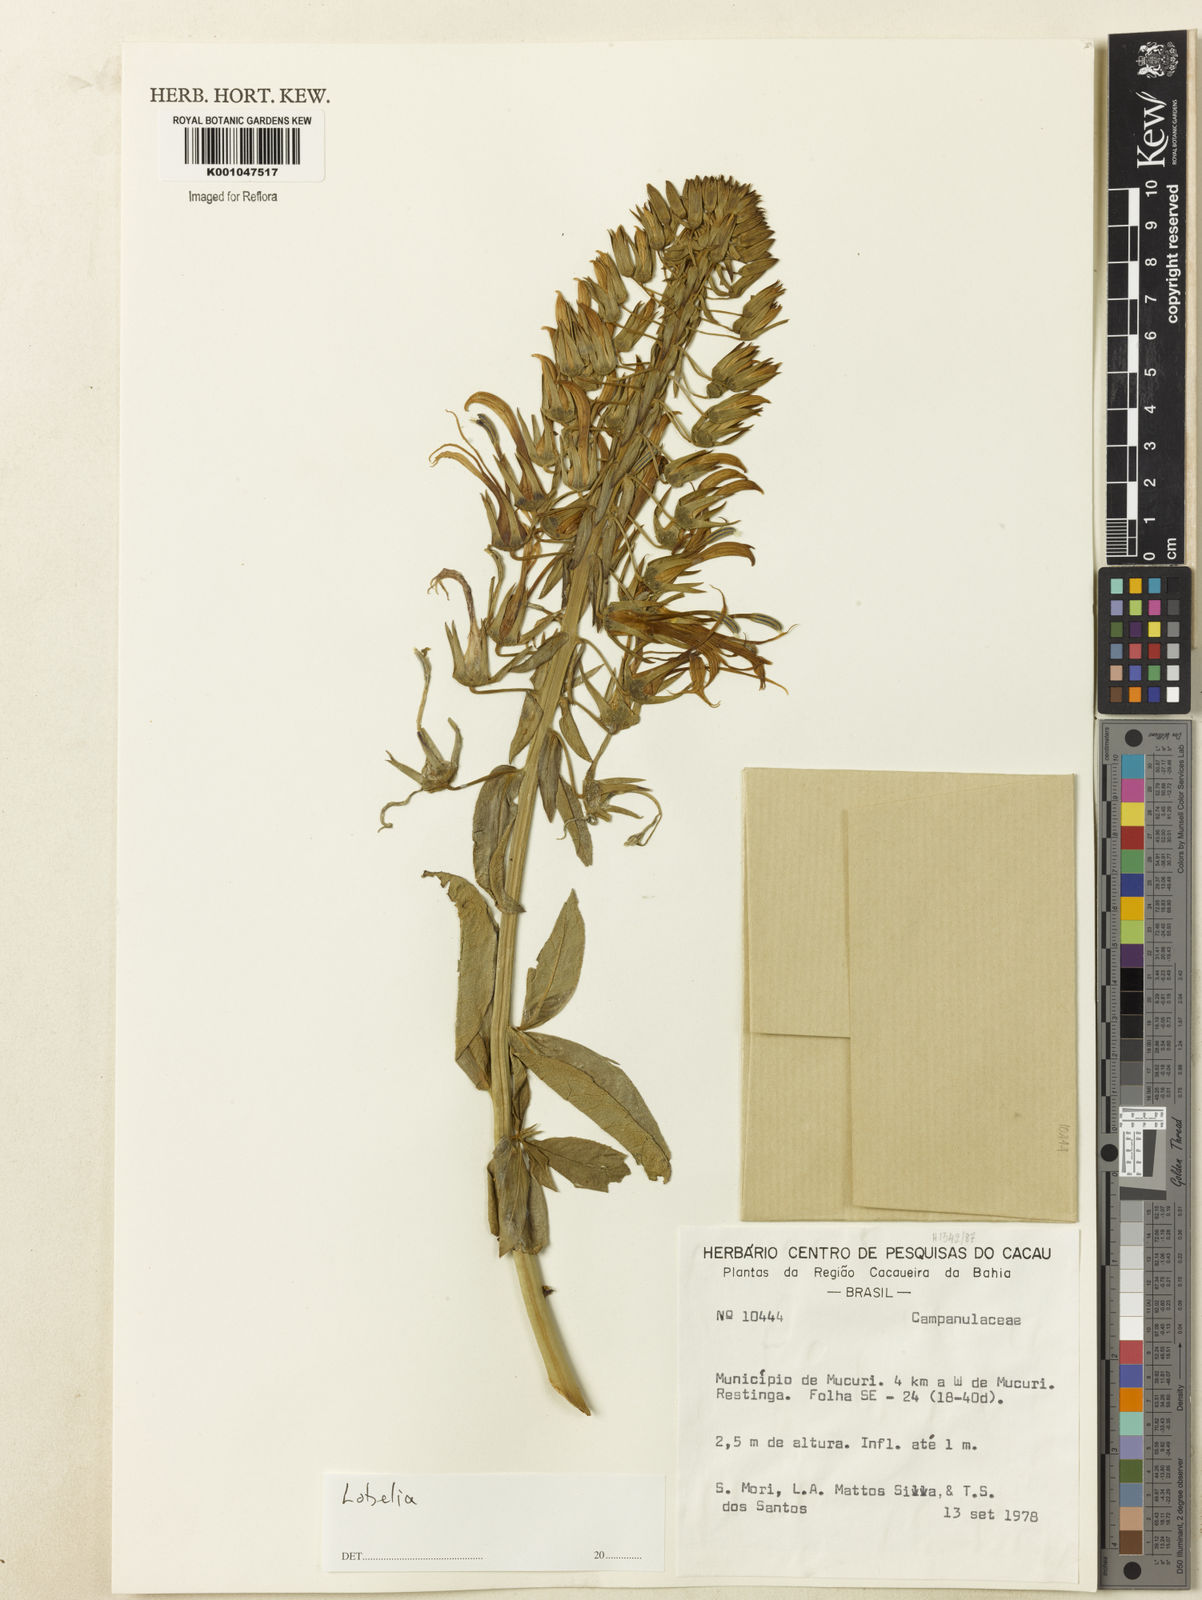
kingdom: Plantae
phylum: Tracheophyta
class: Magnoliopsida
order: Asterales
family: Campanulaceae
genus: Lobelia
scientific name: Lobelia
